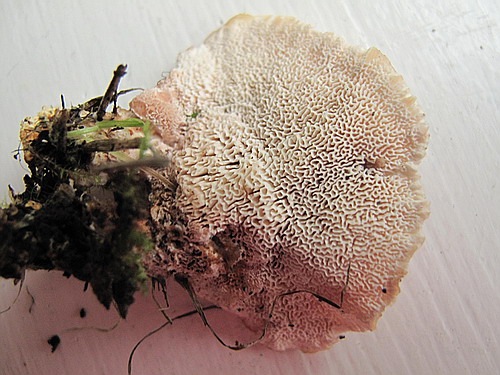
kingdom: Fungi
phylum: Basidiomycota
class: Agaricomycetes
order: Polyporales
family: Podoscyphaceae
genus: Abortiporus
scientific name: Abortiporus biennis
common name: rødmende pjalteporesvamp
